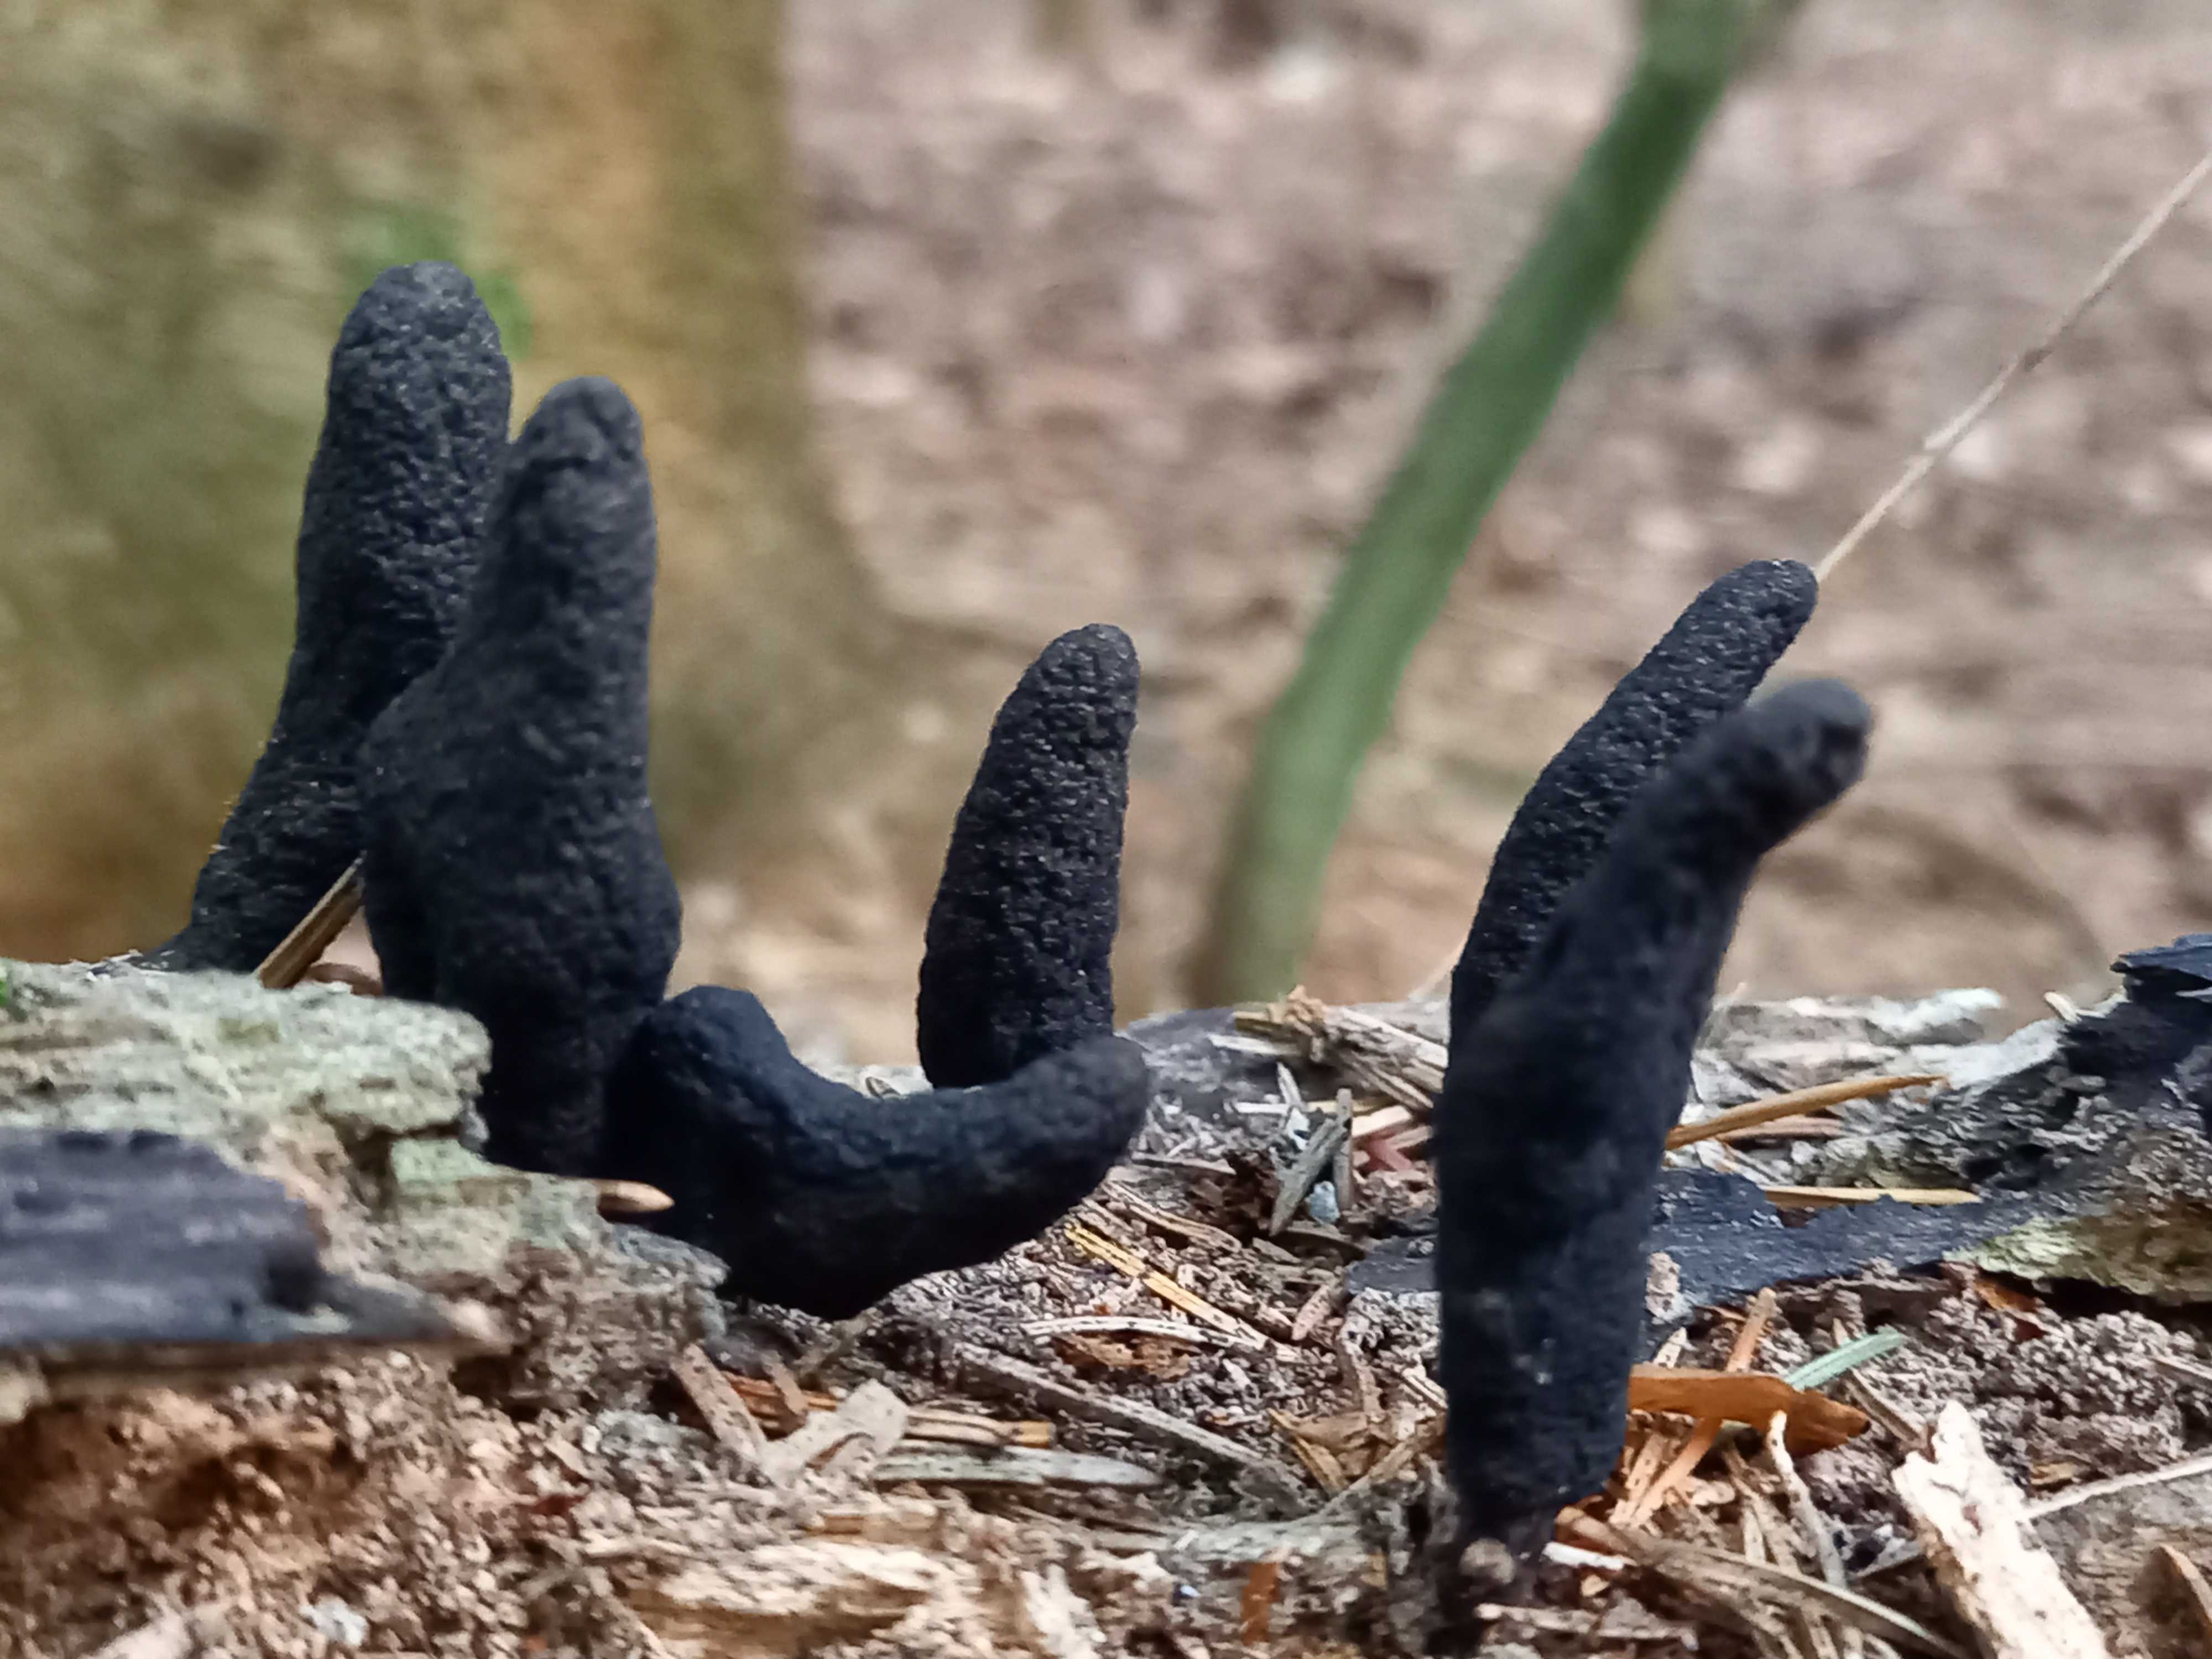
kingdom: Fungi
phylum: Ascomycota
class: Sordariomycetes
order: Xylariales
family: Xylariaceae
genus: Xylaria
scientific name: Xylaria longipes
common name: slank stødsvamp
